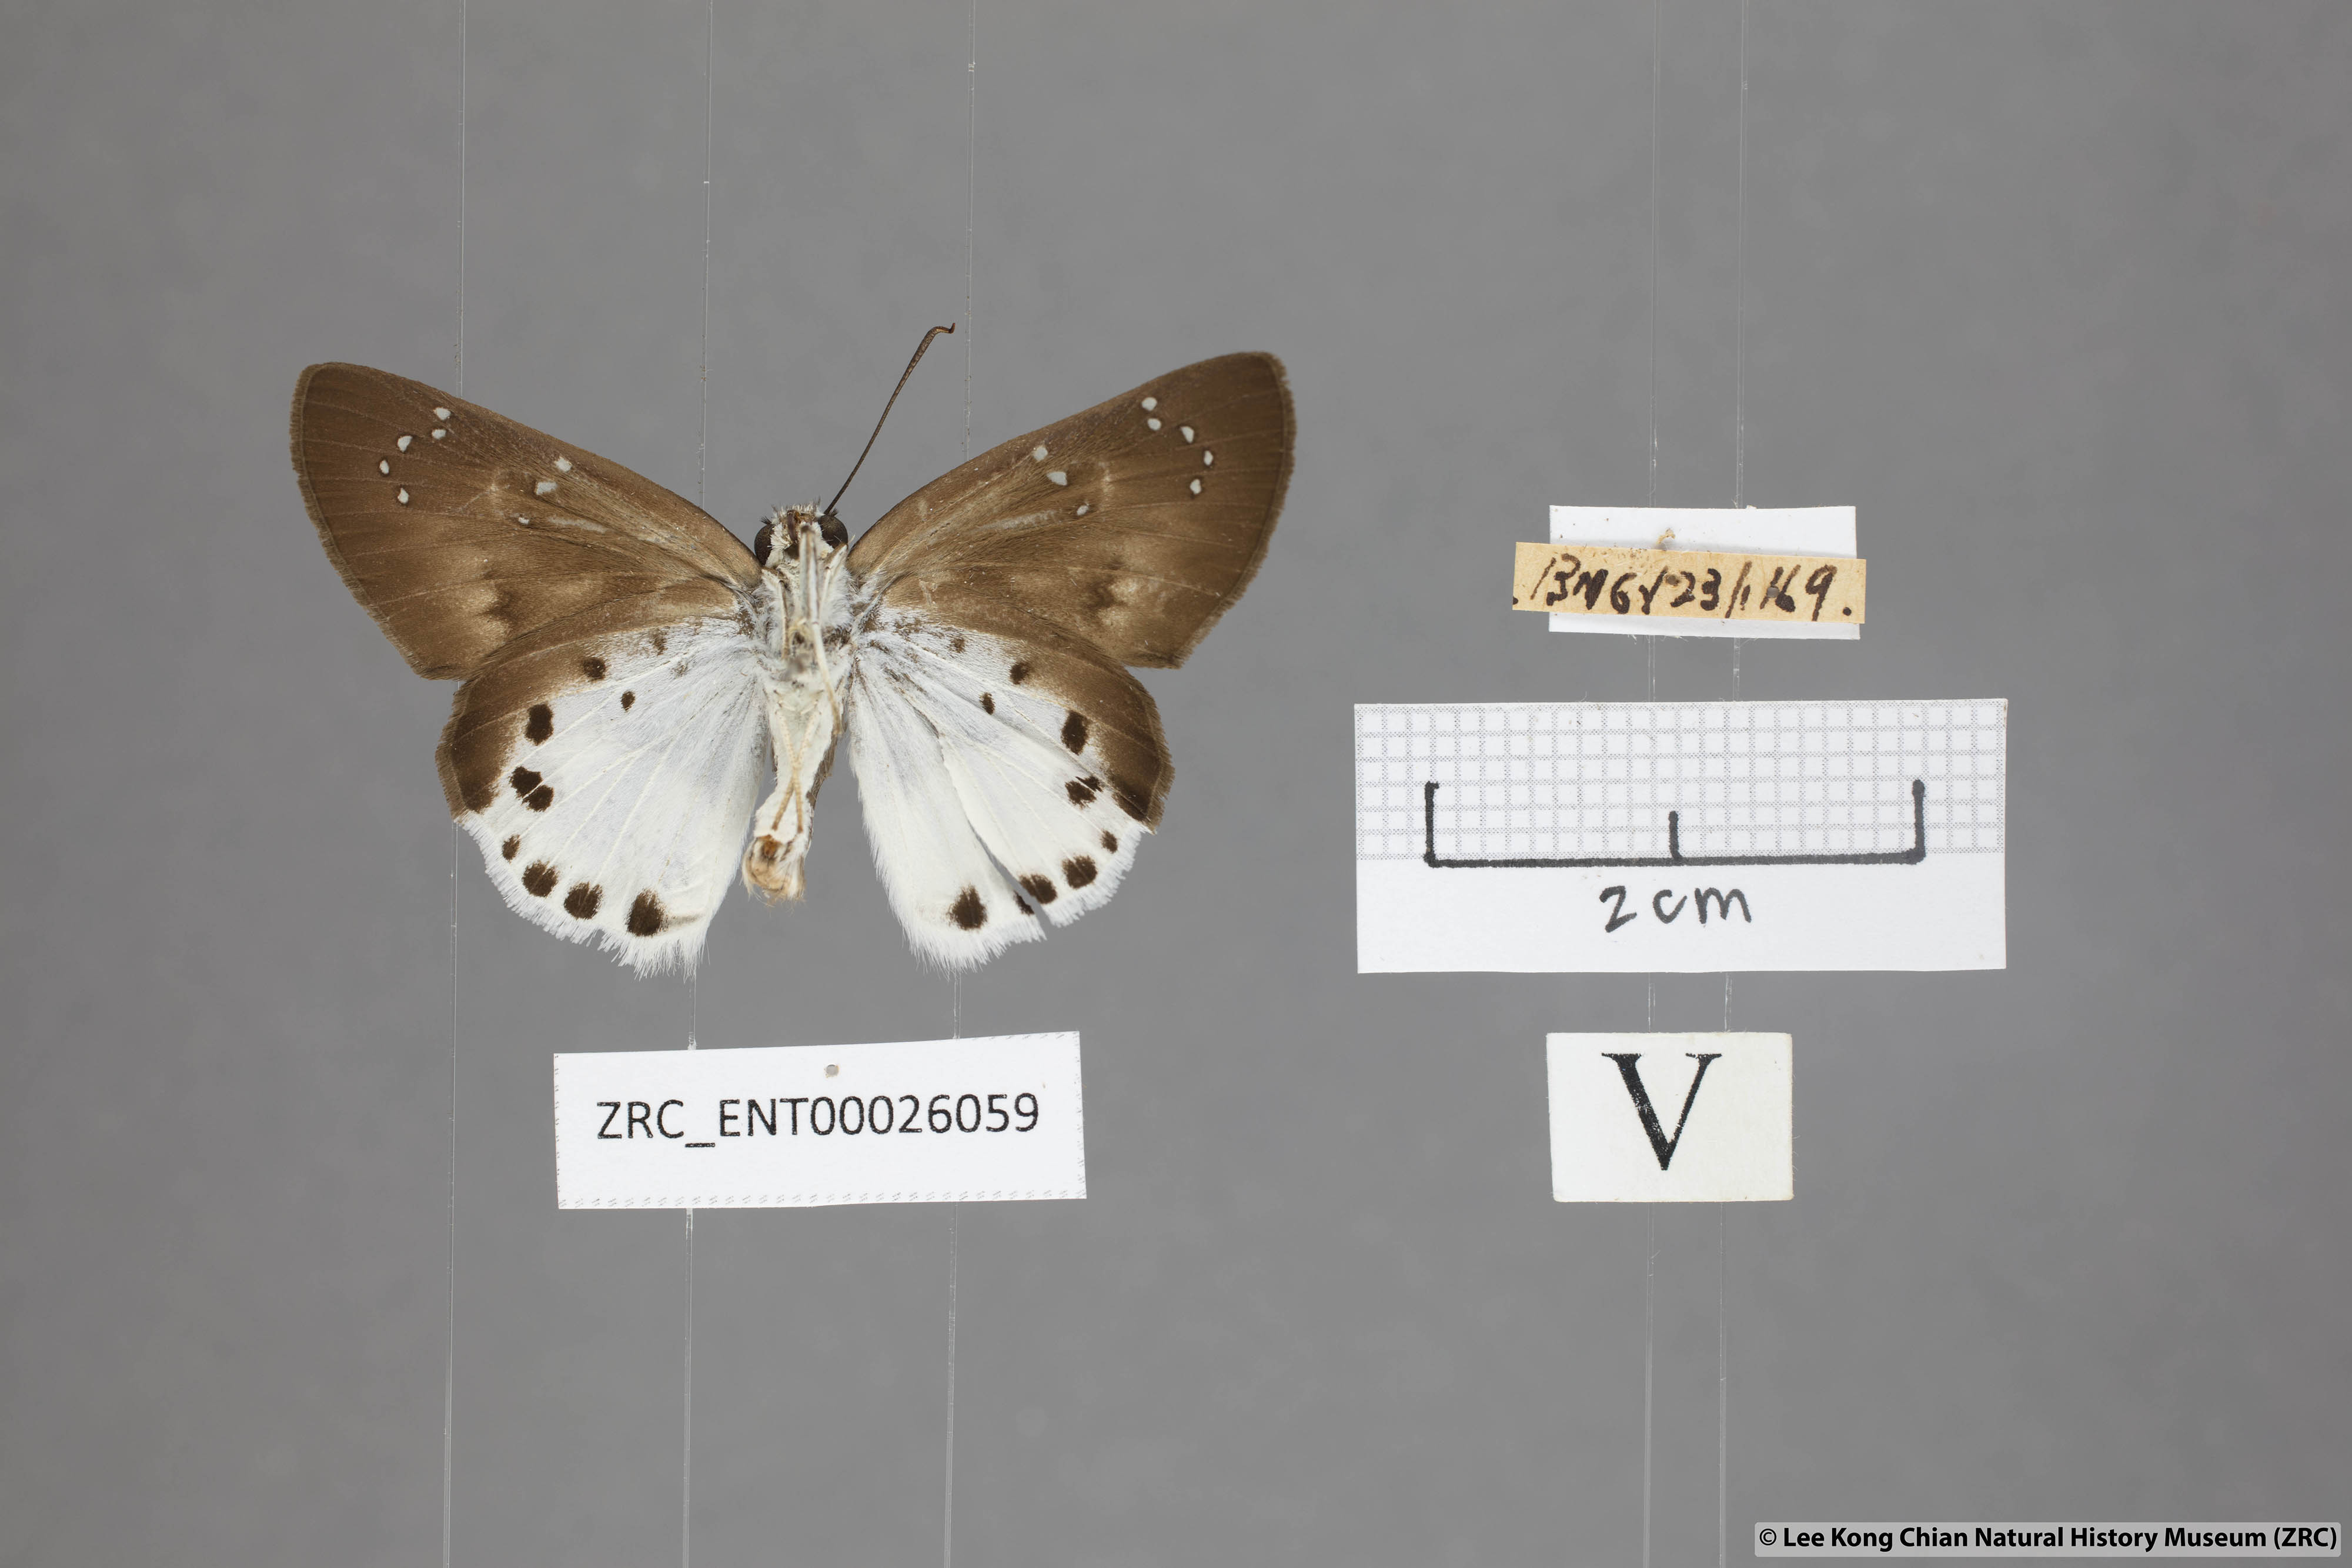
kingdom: Animalia
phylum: Arthropoda
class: Insecta
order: Lepidoptera
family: Hesperiidae
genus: Tagiades
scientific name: Tagiades litigiosa
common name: Water snow flat
